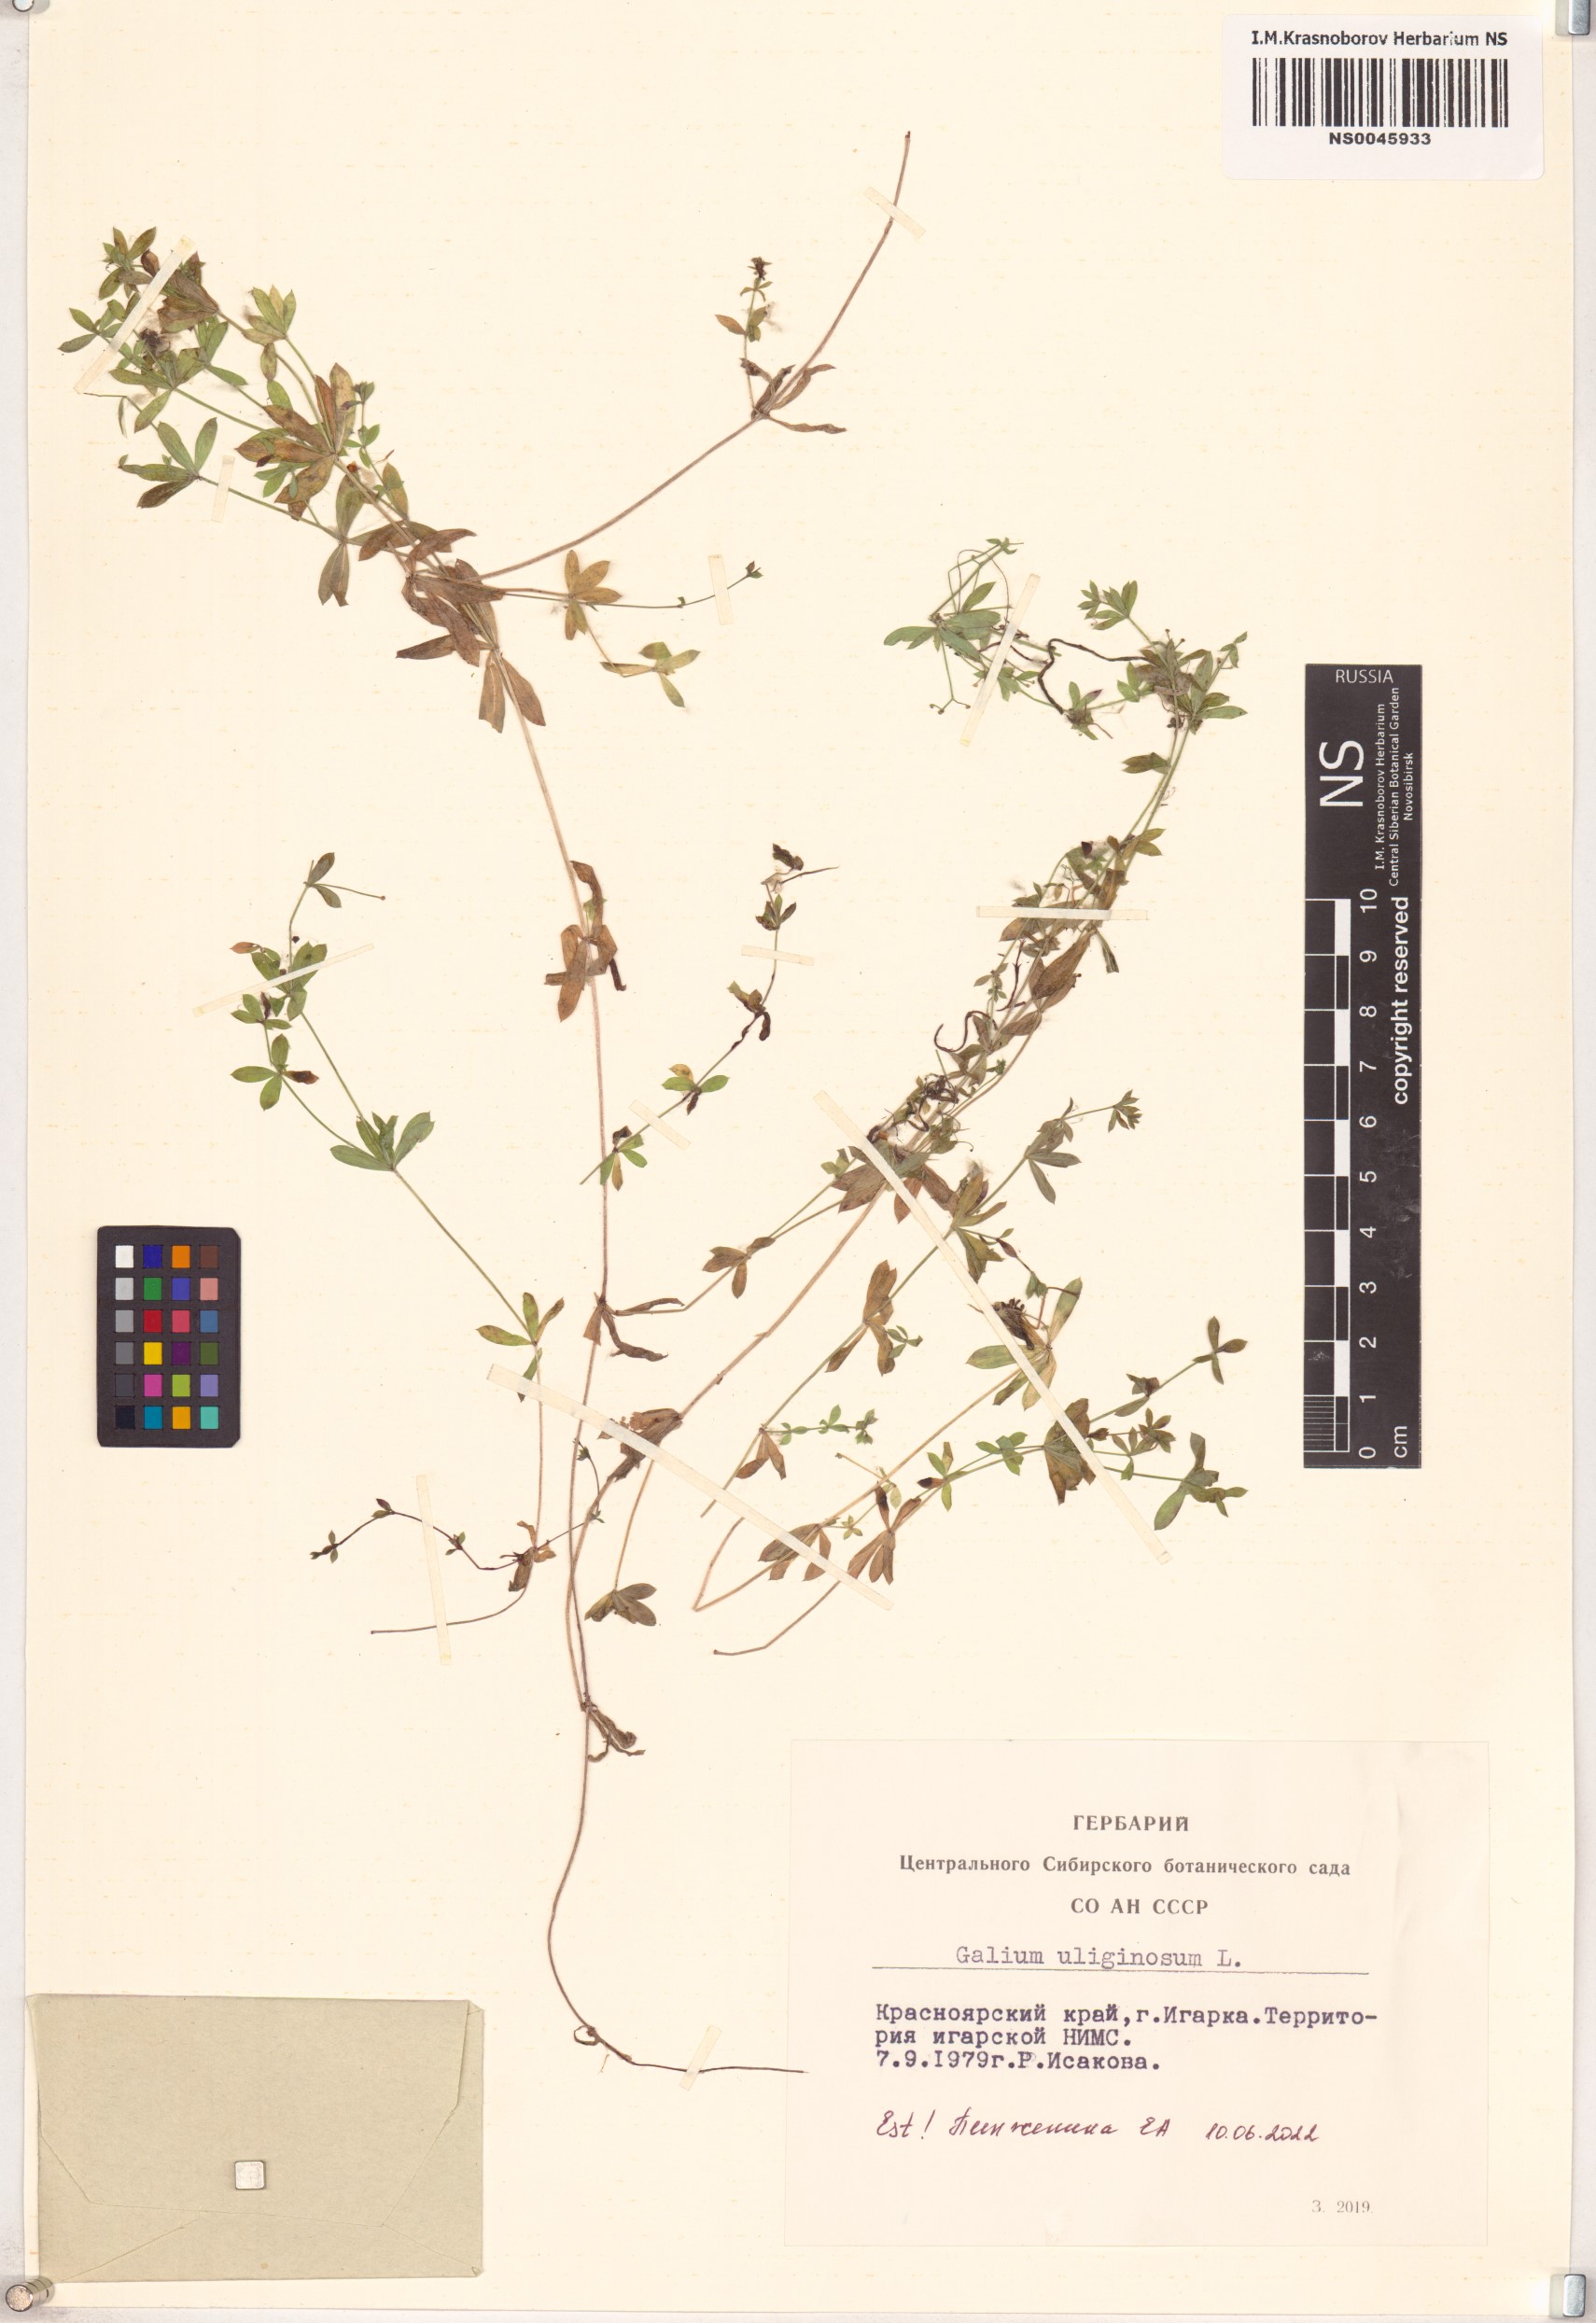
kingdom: Plantae
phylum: Tracheophyta
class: Magnoliopsida
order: Gentianales
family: Rubiaceae
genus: Galium
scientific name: Galium uliginosum
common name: Fen bedstraw
